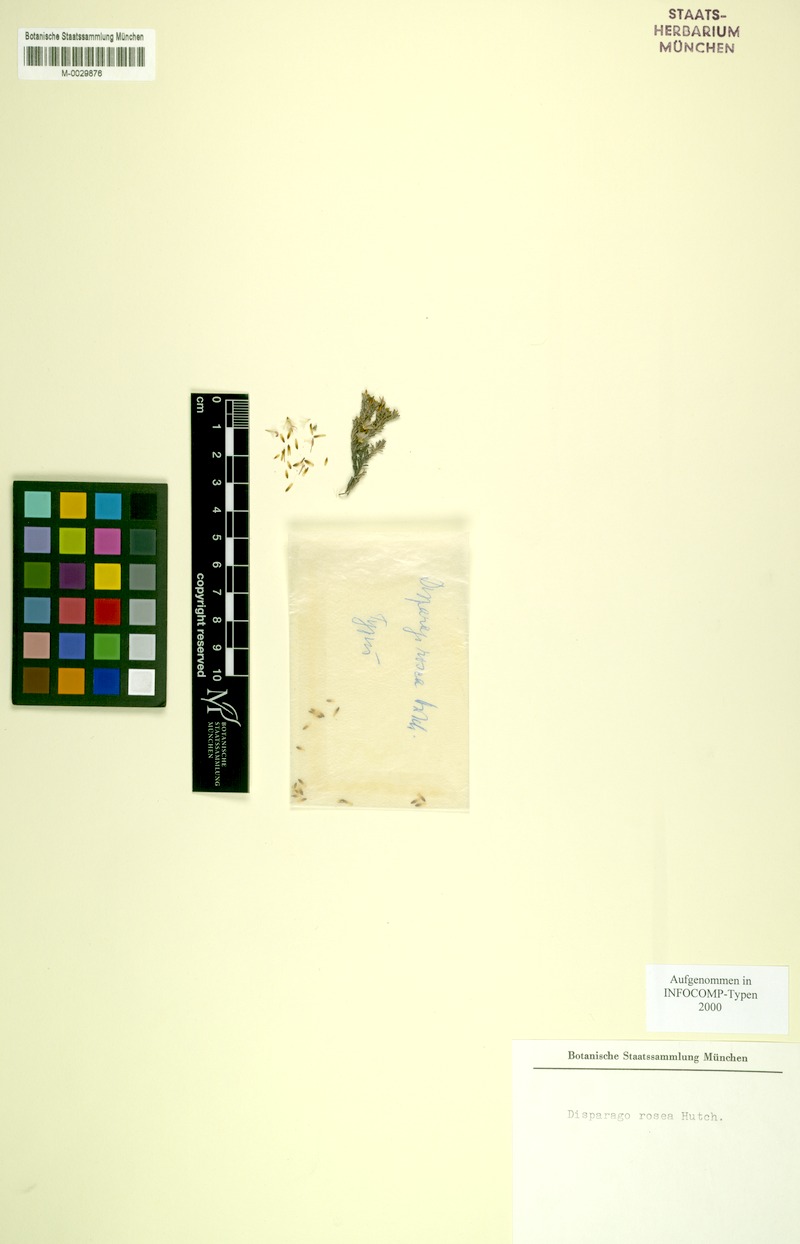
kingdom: Plantae
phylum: Tracheophyta
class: Magnoliopsida
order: Asterales
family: Asteraceae
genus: Disparago
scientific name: Disparago kolbei
